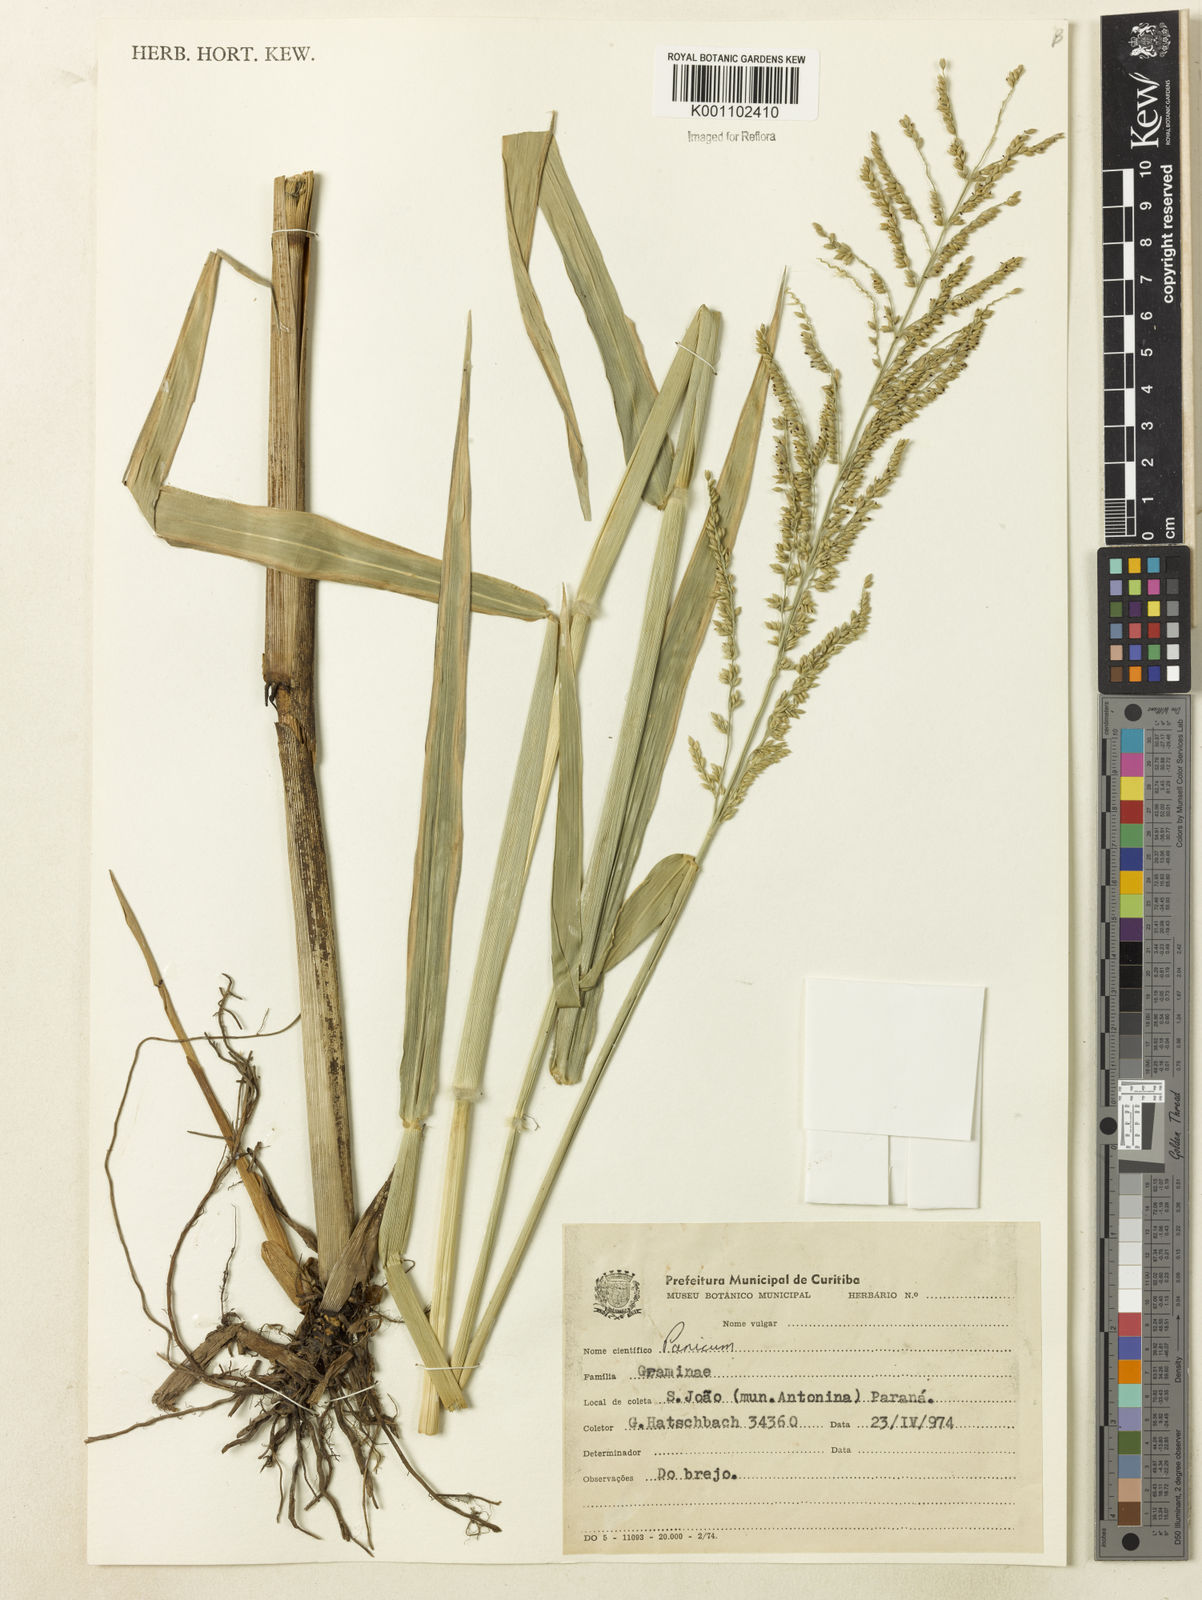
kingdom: Plantae
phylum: Tracheophyta
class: Liliopsida
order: Poales
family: Poaceae
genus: Urochloa
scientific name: Urochloa mutica
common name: Para grass
